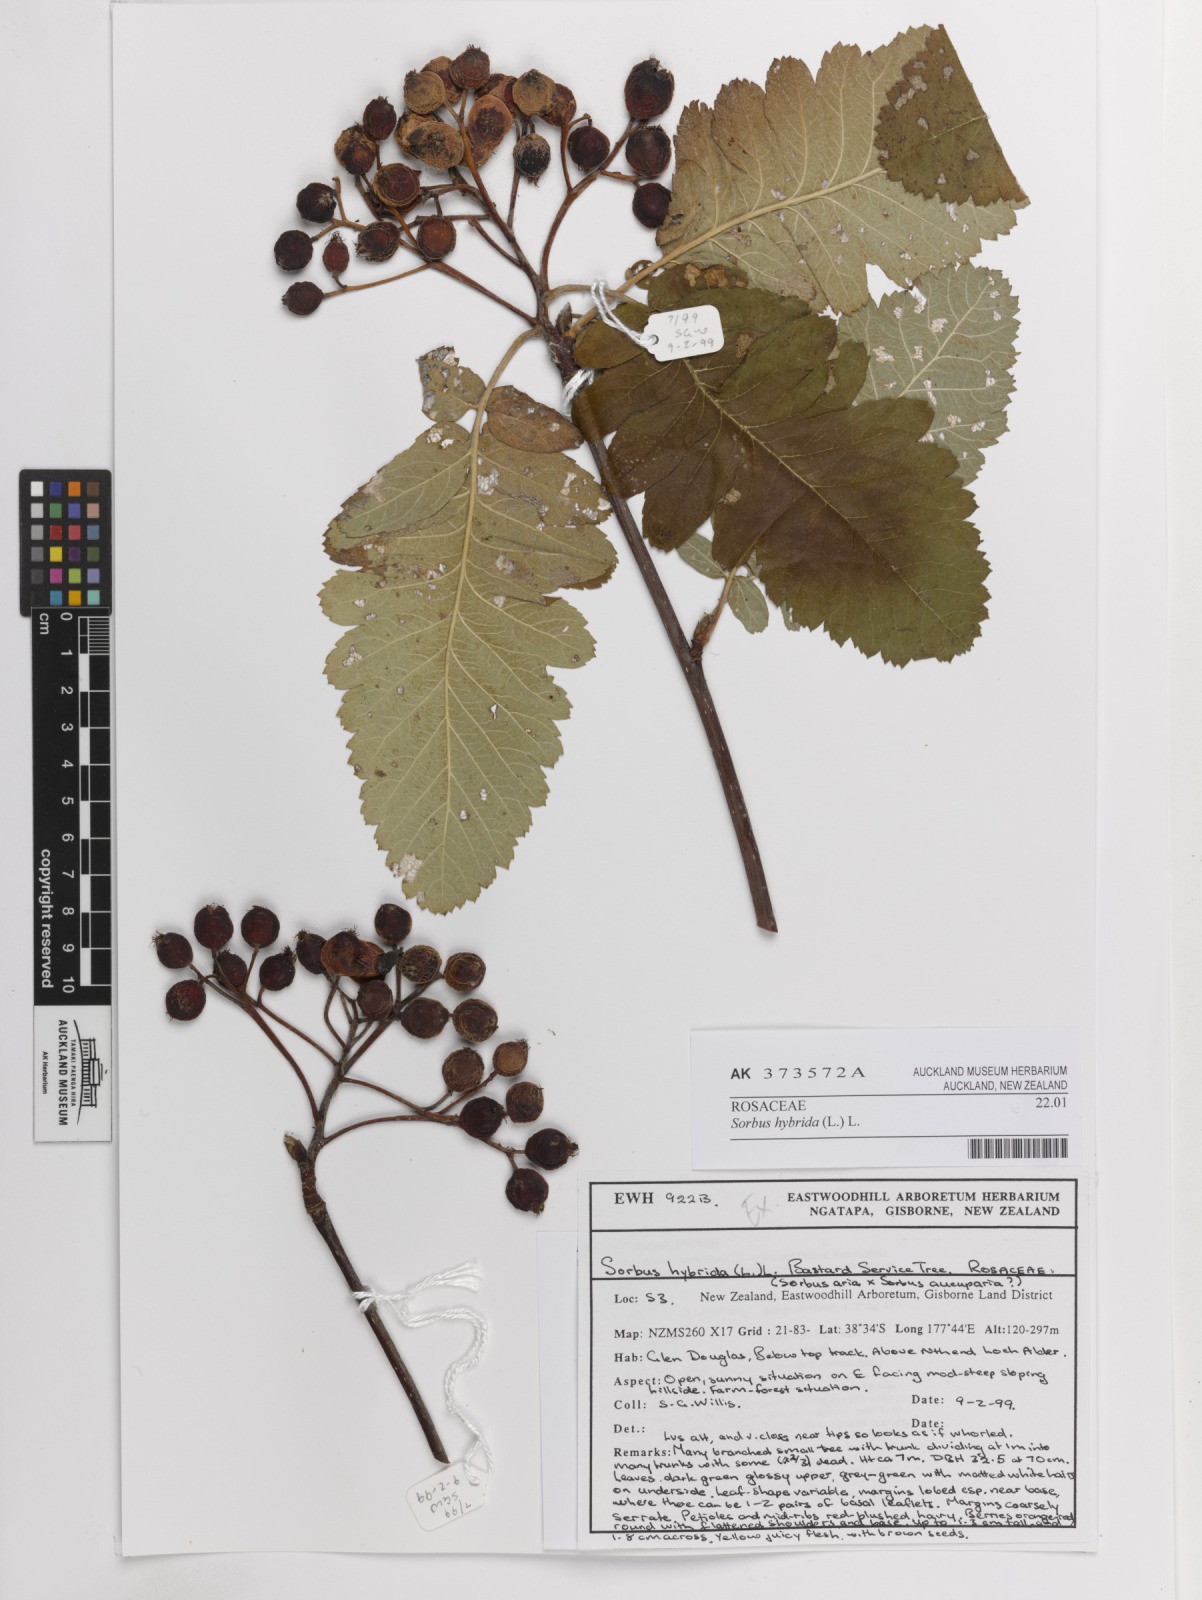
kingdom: Plantae
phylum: Tracheophyta
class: Magnoliopsida
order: Rosales
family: Rosaceae
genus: Hedlundia
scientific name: Hedlundia hybrida
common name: Swedish service-tree
